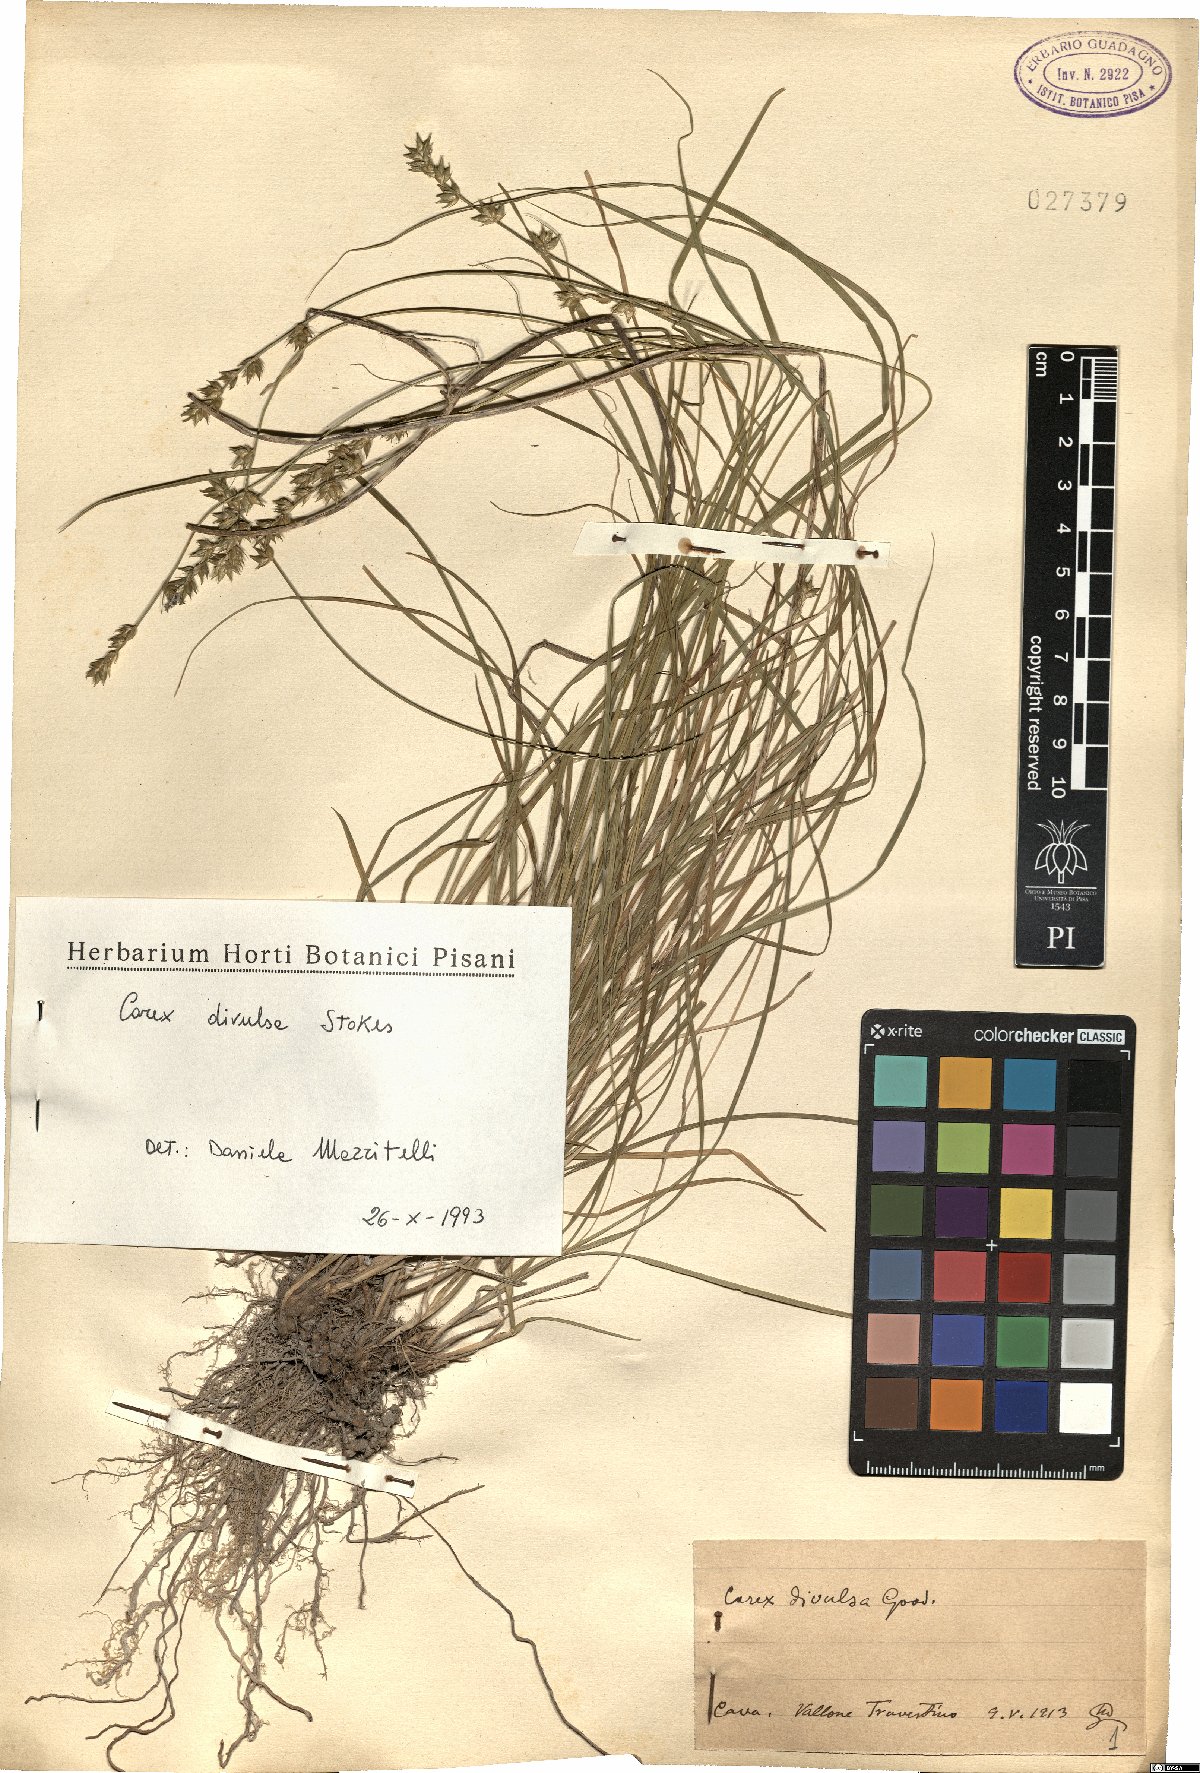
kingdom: Plantae
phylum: Tracheophyta
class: Liliopsida
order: Poales
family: Cyperaceae
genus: Carex
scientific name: Carex divulsa
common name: Grassland sedge
